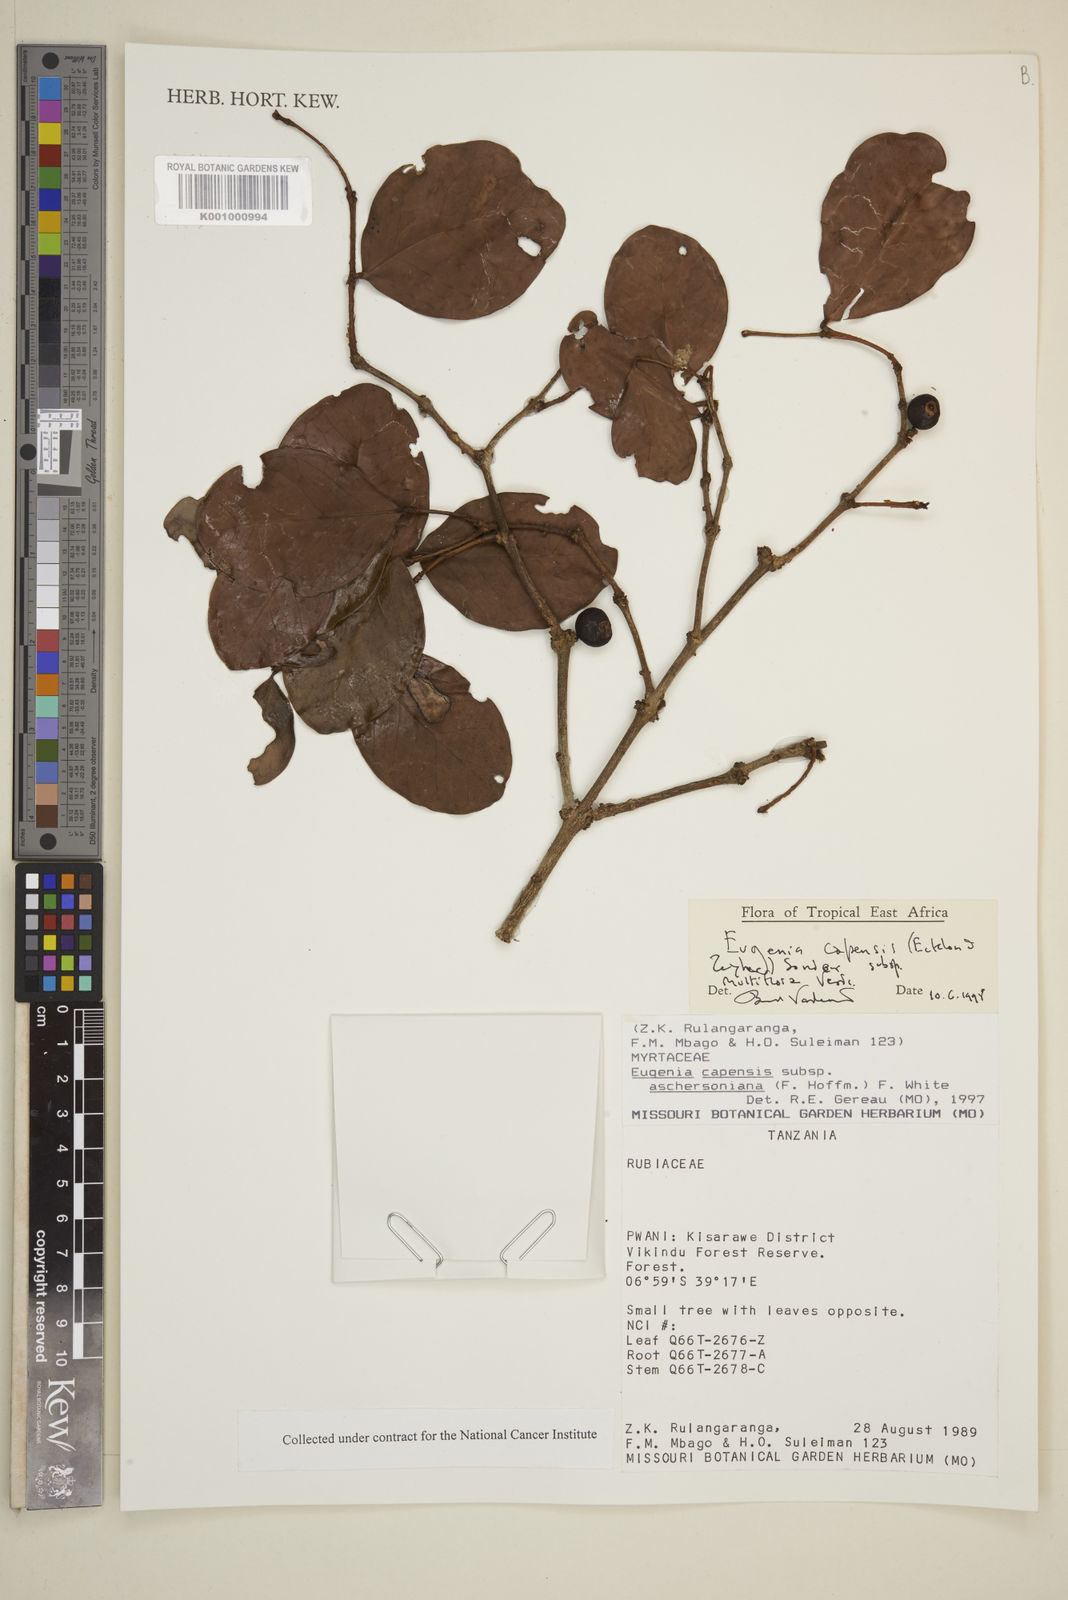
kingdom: Plantae
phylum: Tracheophyta
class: Magnoliopsida
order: Myrtales
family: Myrtaceae
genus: Eugenia
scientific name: Eugenia aschersoniana
